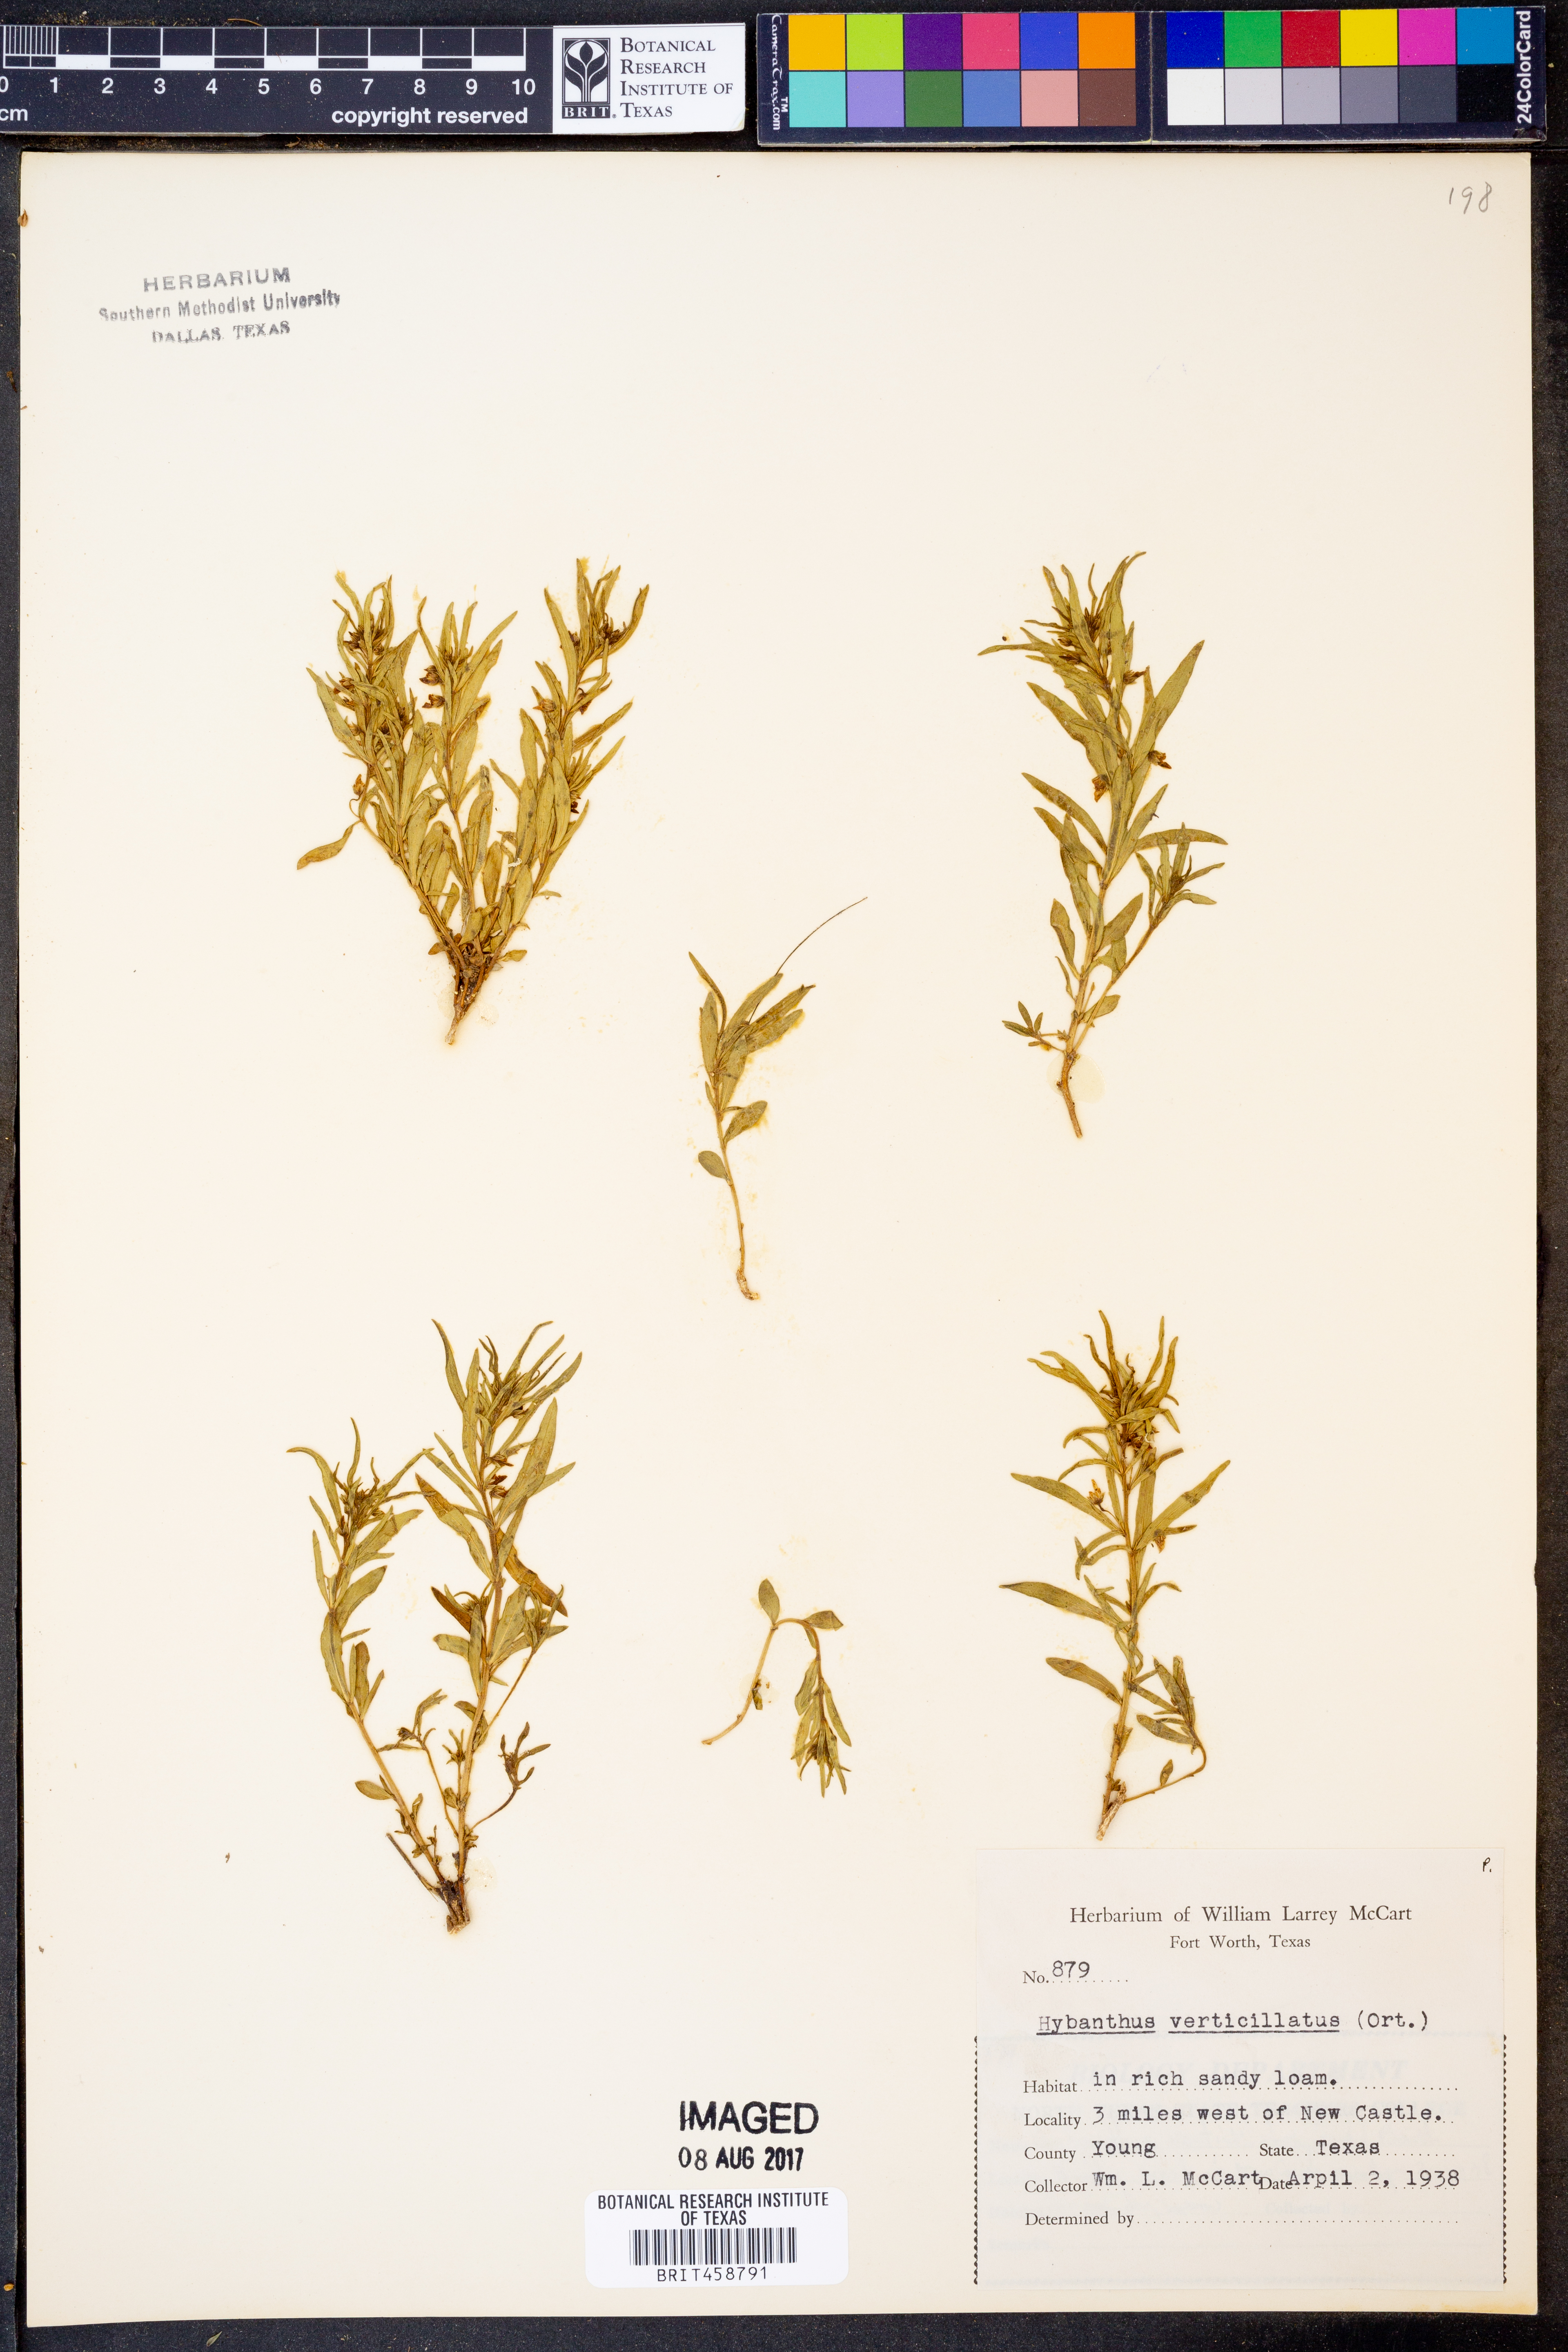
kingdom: Plantae
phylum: Tracheophyta
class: Magnoliopsida
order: Malpighiales
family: Violaceae
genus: Pombalia
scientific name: Pombalia verticillata
